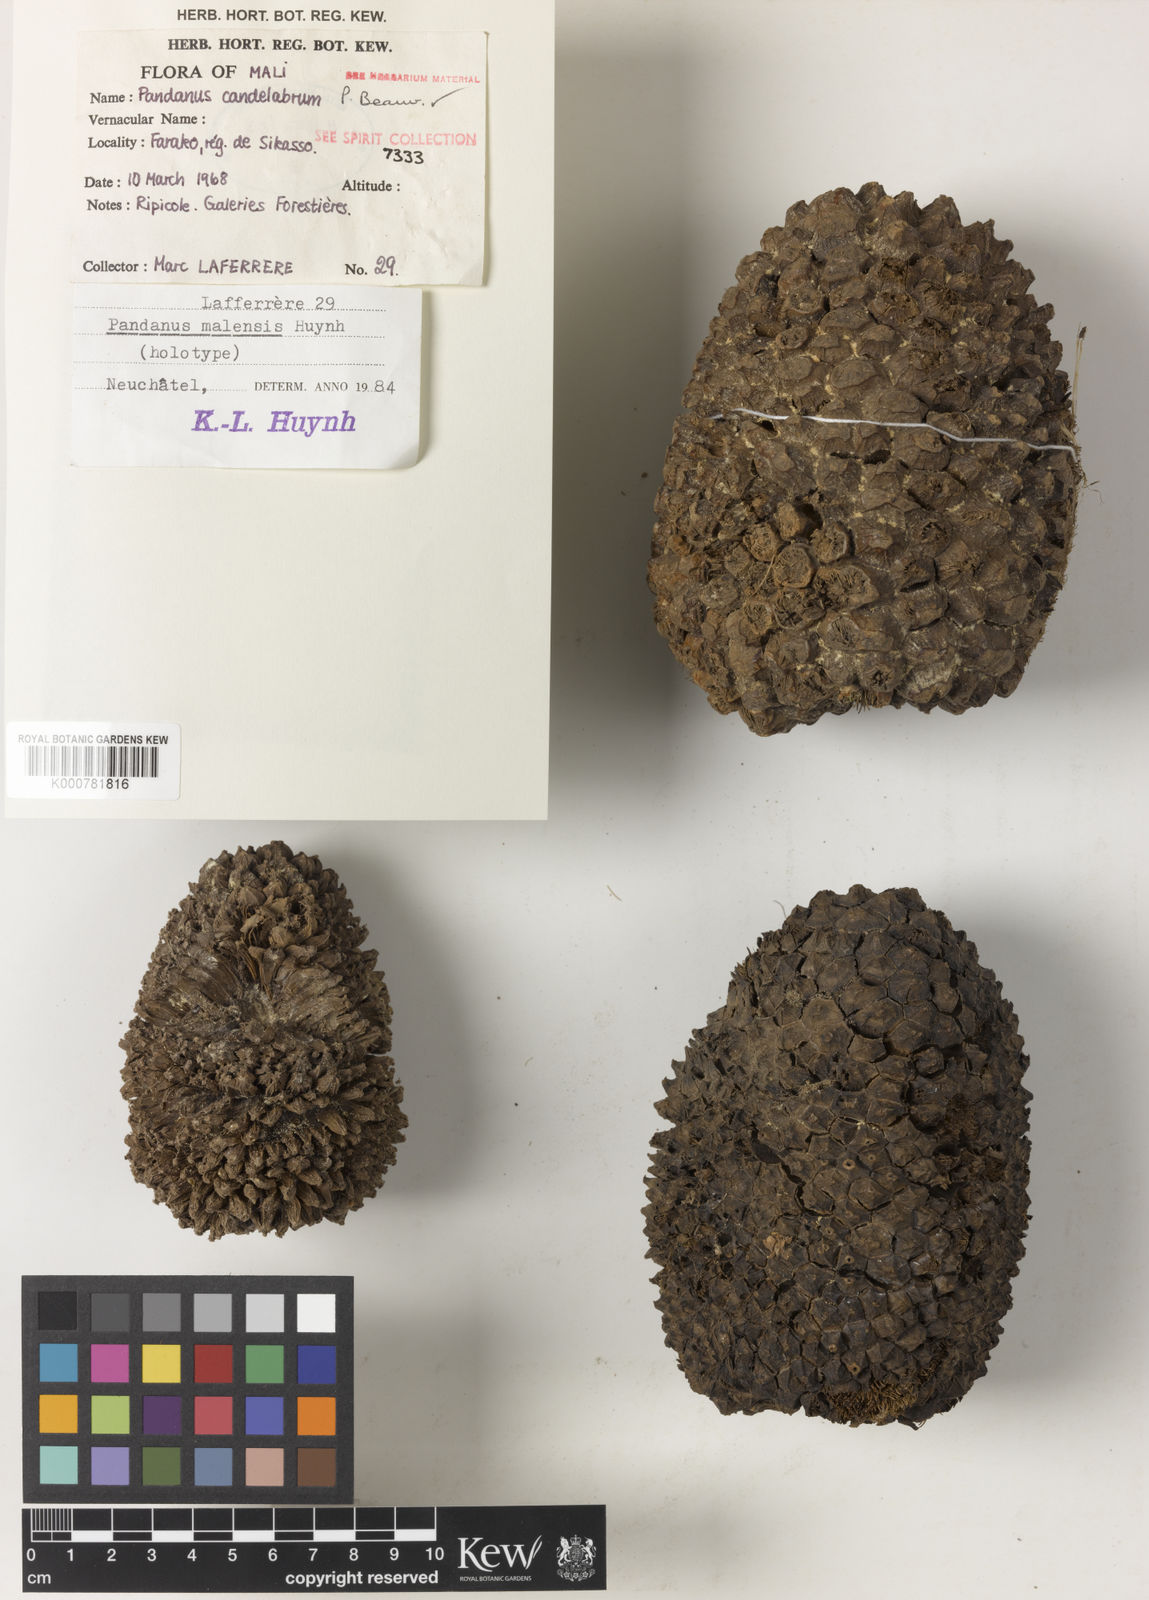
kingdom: Plantae
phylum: Tracheophyta
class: Liliopsida
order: Pandanales
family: Pandanaceae
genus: Pandanus
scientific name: Pandanus raynalii
